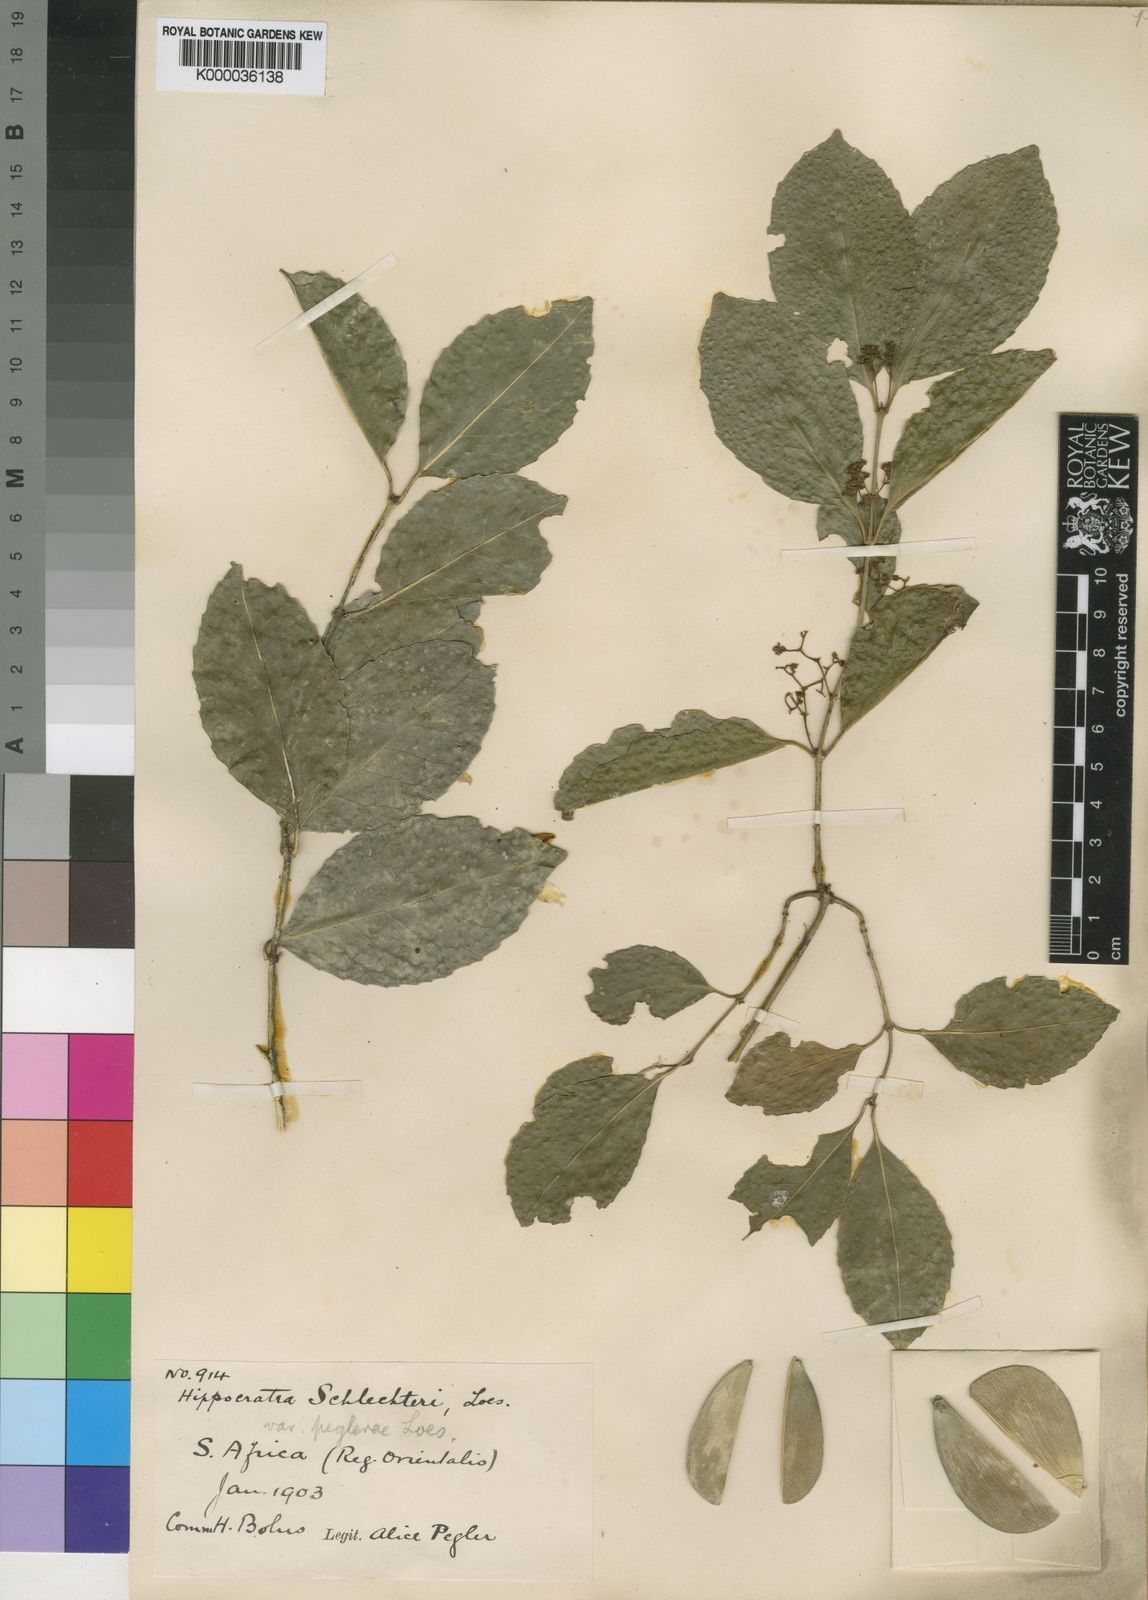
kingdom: Plantae
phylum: Tracheophyta
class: Magnoliopsida
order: Celastrales
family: Celastraceae
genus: Hippocratea
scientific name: Hippocratea
